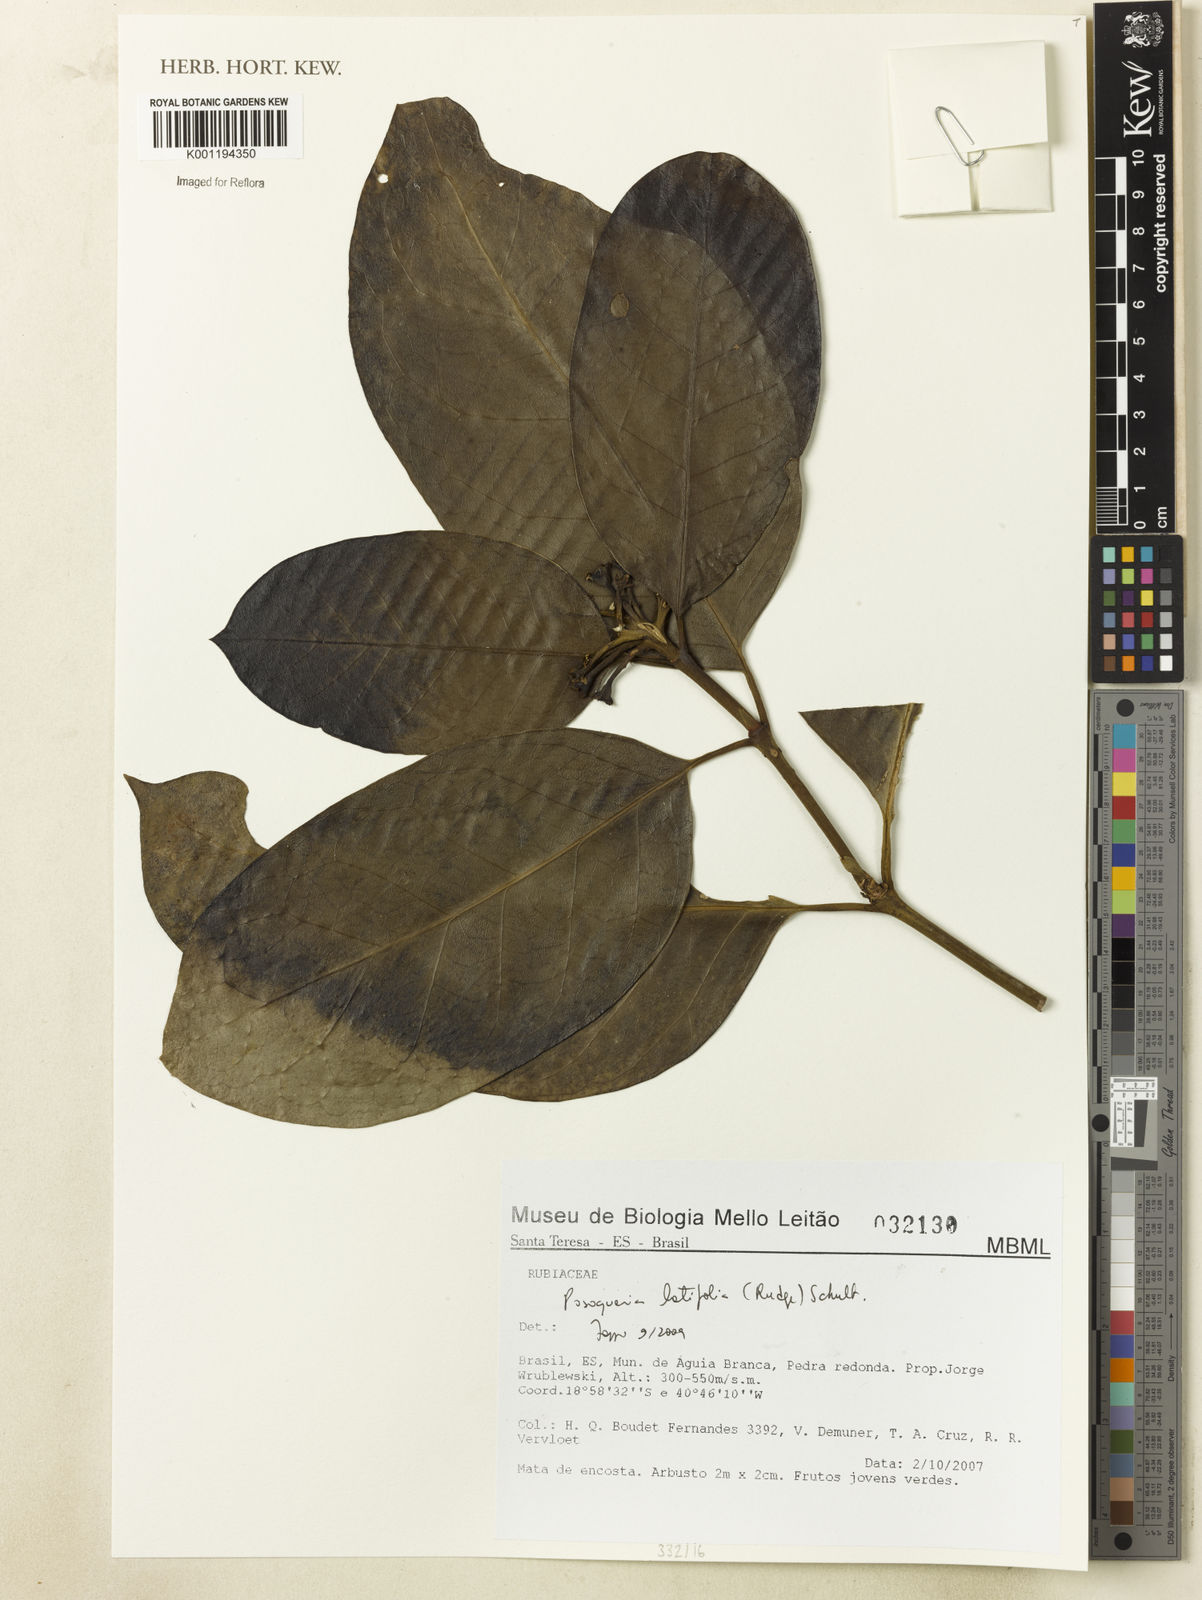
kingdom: Plantae
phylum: Tracheophyta
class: Magnoliopsida
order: Gentianales
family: Rubiaceae
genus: Posoqueria
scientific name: Posoqueria latifolia
